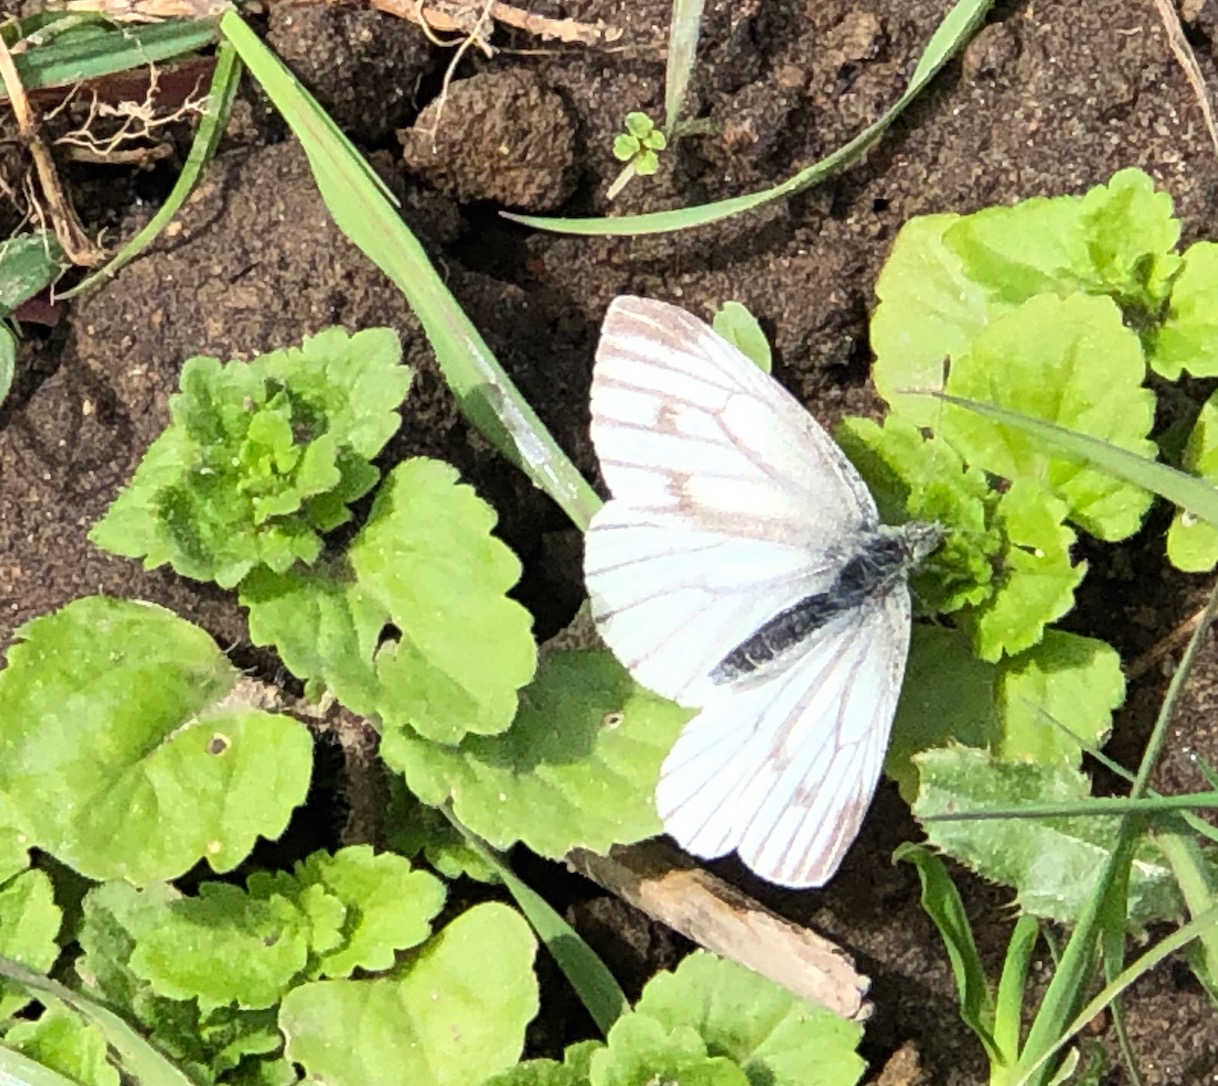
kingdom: Animalia
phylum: Arthropoda
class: Insecta
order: Lepidoptera
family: Pieridae
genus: Pieris
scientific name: Pieris napi
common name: Grønåret kålsommerfugl
